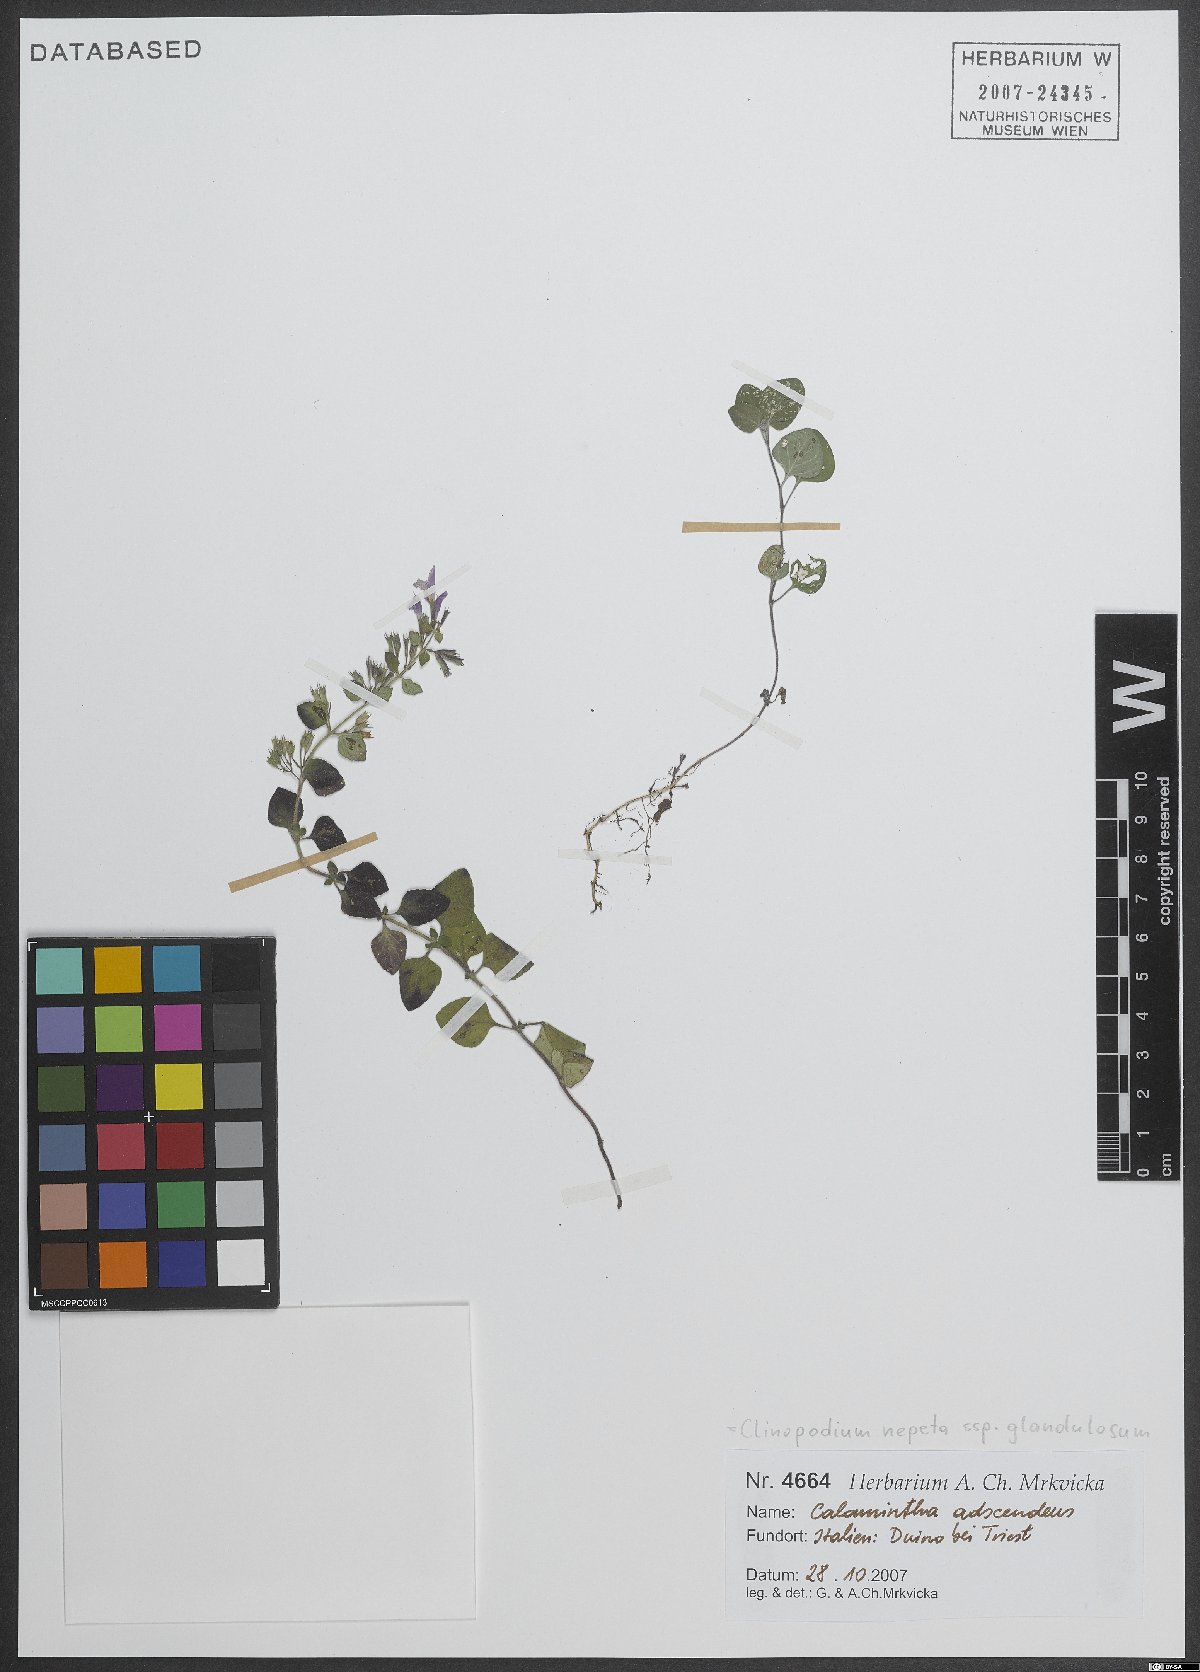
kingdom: Plantae
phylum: Tracheophyta
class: Magnoliopsida
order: Lamiales
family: Lamiaceae
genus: Clinopodium
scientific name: Clinopodium nepeta
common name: Lesser calamint
